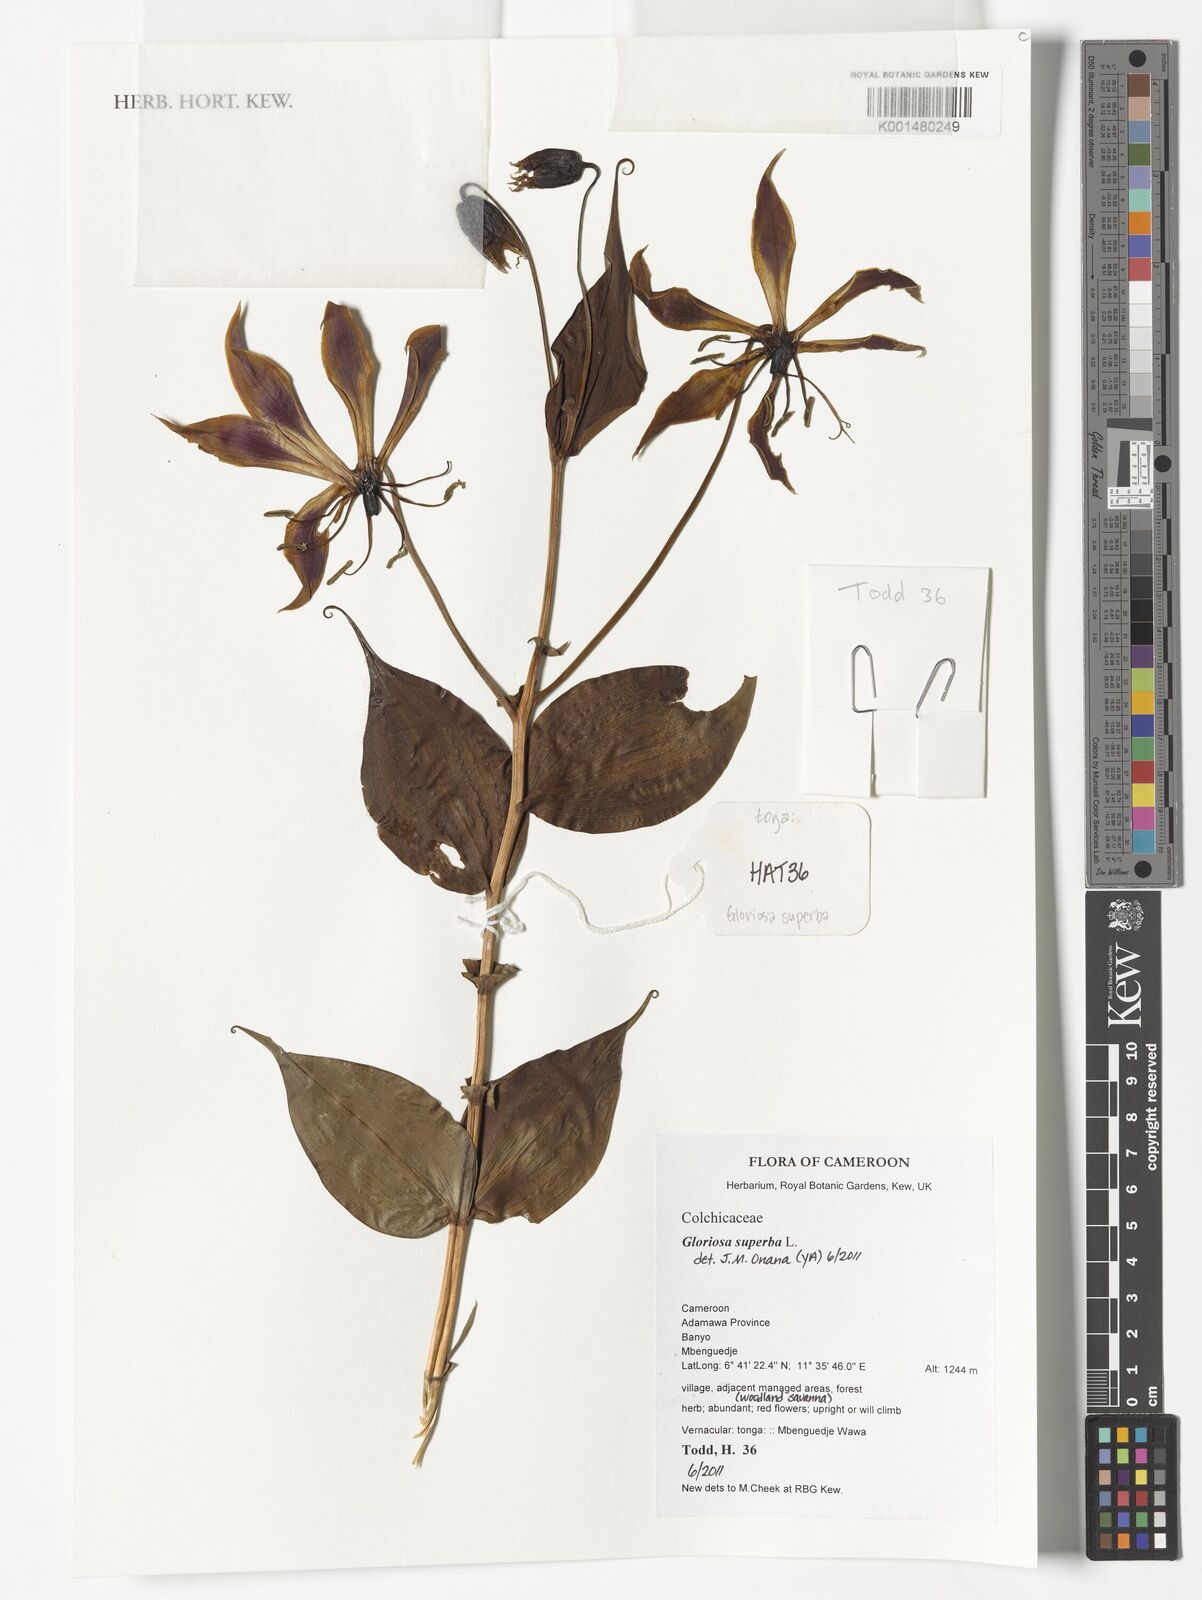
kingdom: Plantae
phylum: Tracheophyta
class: Liliopsida
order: Liliales
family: Colchicaceae
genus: Gloriosa
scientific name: Gloriosa superba
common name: Flame lily
